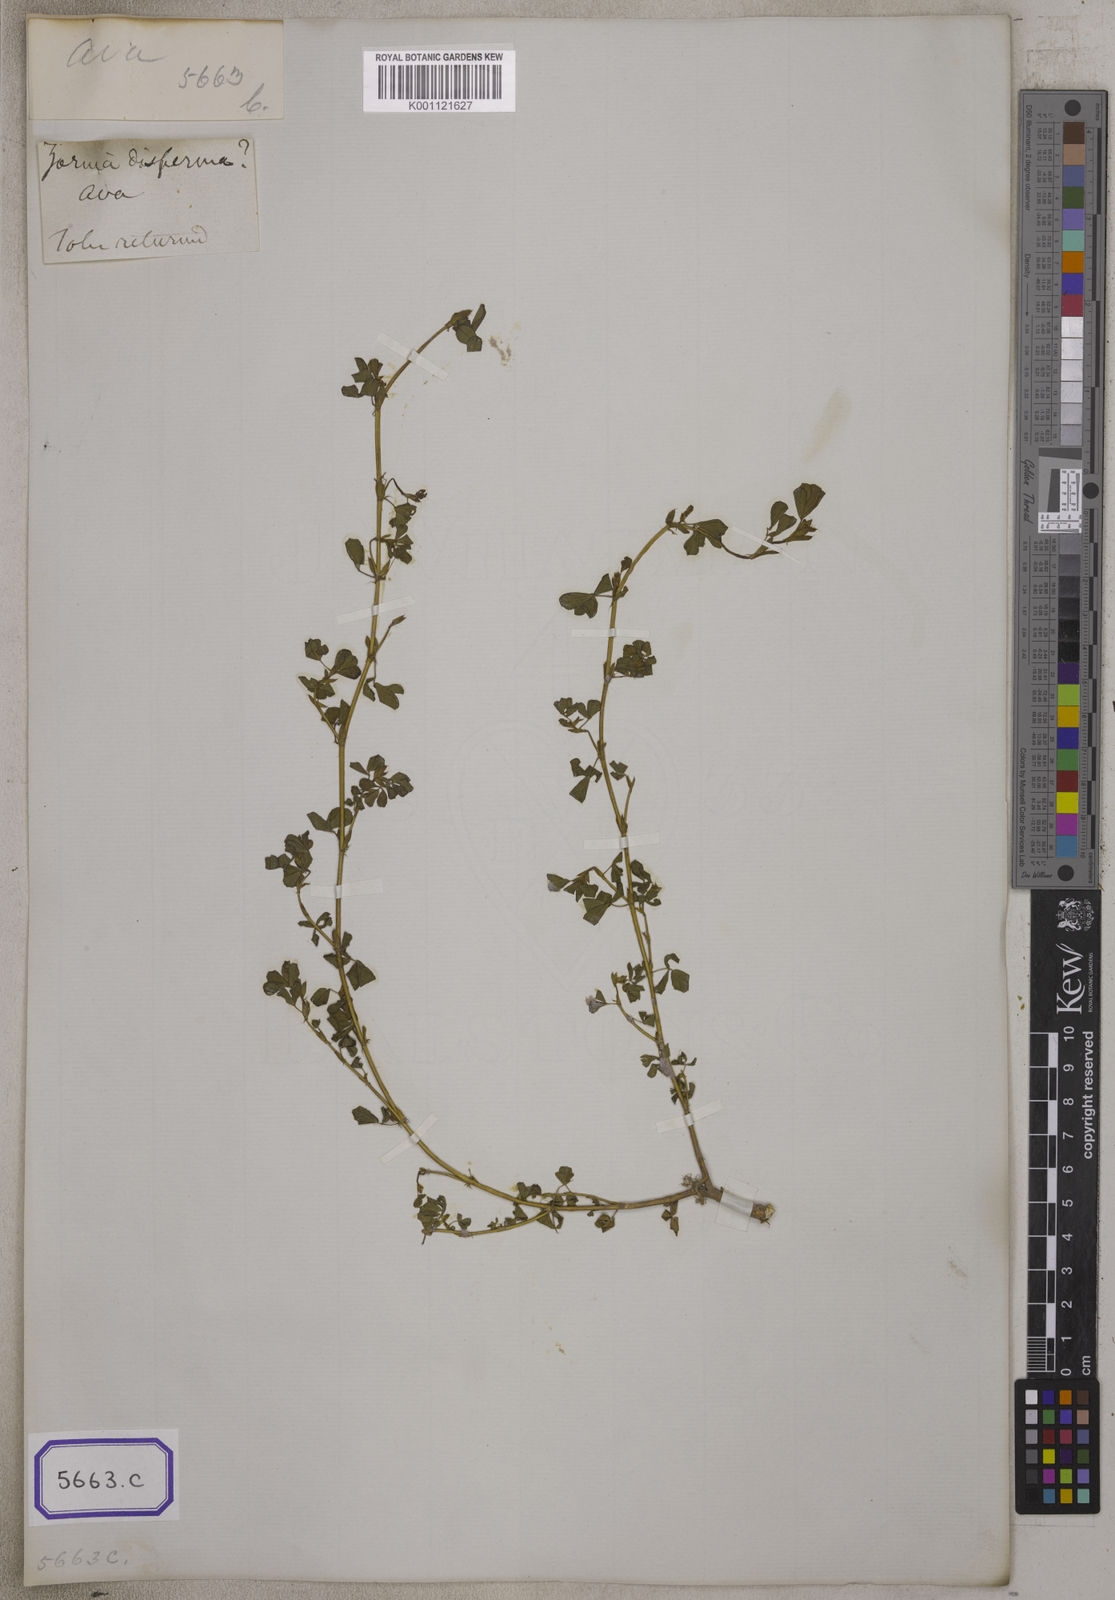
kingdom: Plantae
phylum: Tracheophyta
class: Magnoliopsida
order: Fabales
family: Fabaceae
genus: Geissaspis
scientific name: Geissaspis cristata
